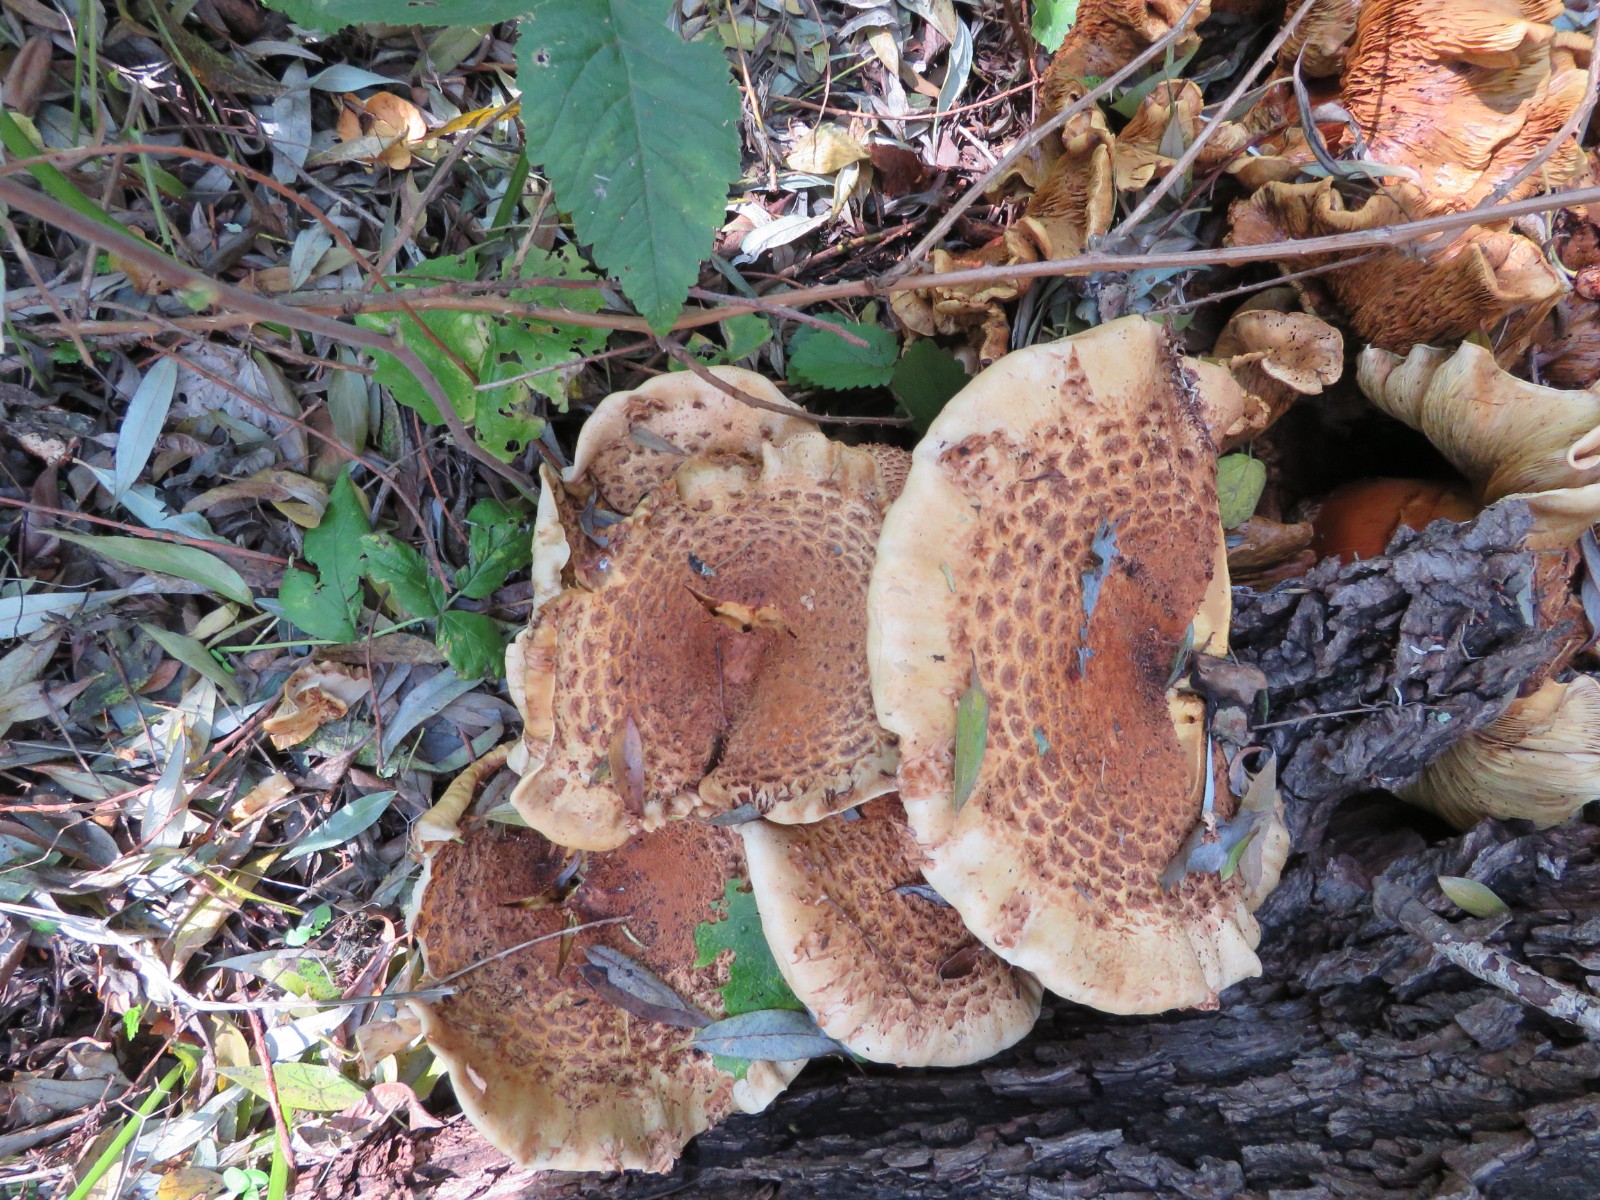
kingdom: Fungi
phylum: Basidiomycota
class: Agaricomycetes
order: Agaricales
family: Strophariaceae
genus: Pholiota
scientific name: Pholiota squarrosa
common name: krumskællet skælhat
